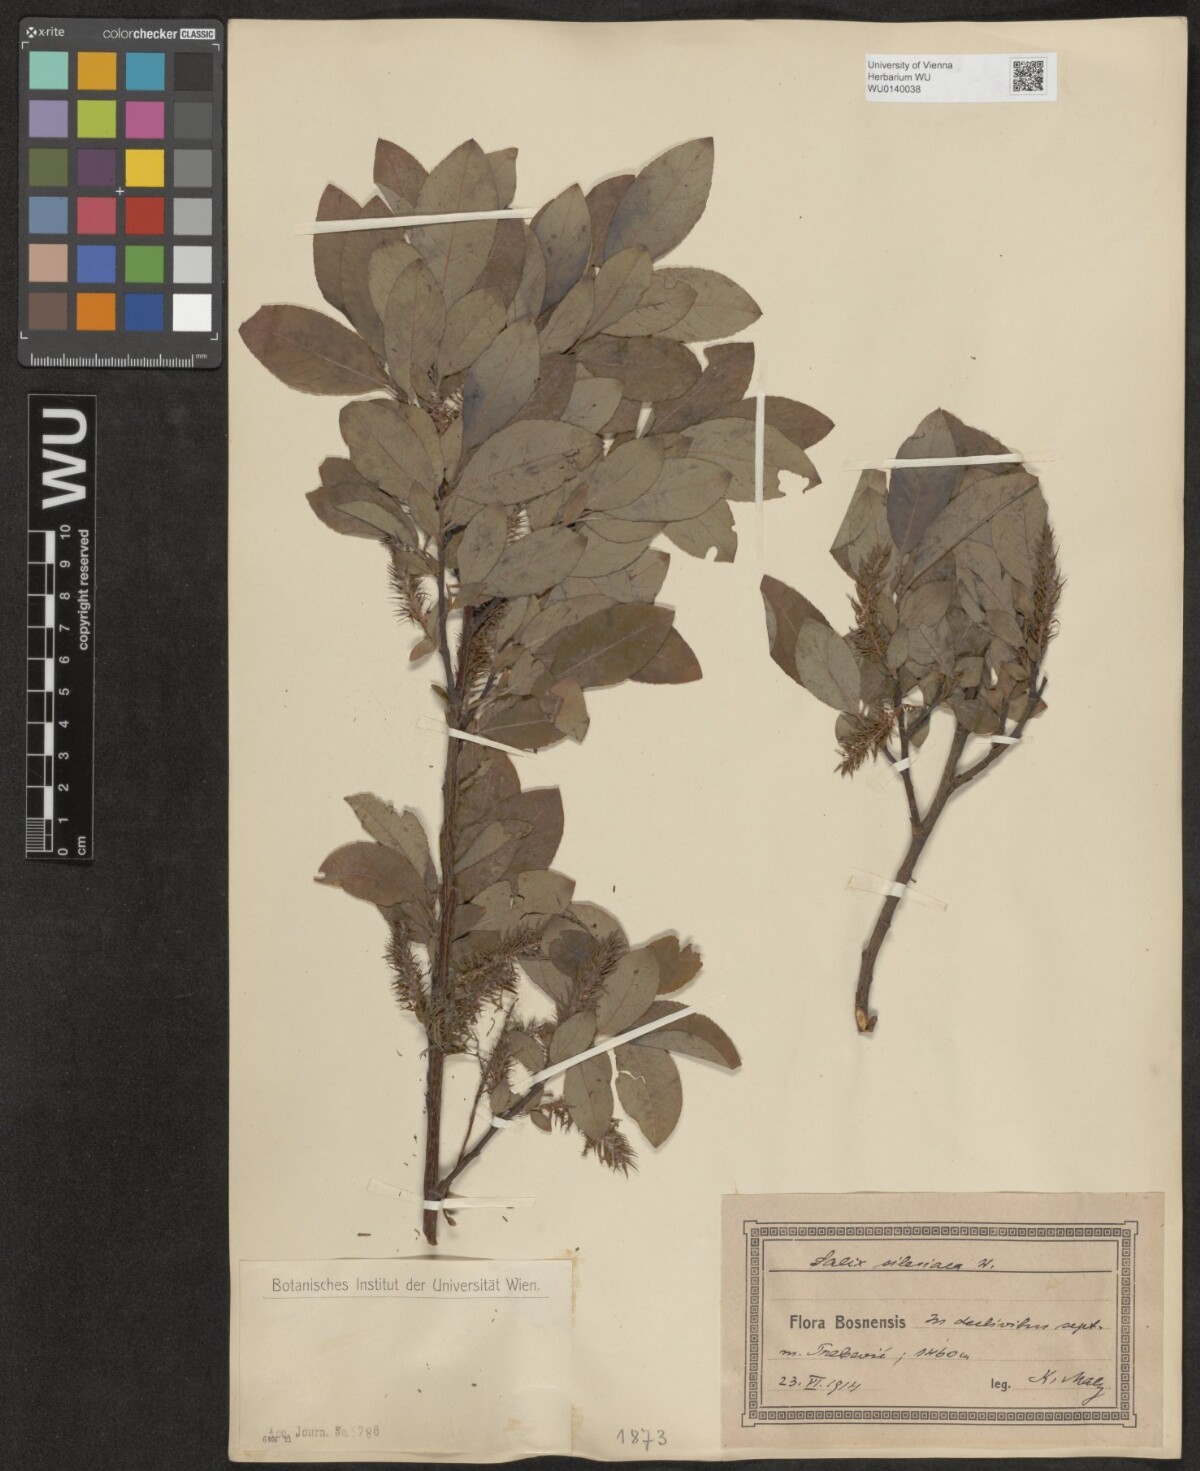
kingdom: Plantae
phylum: Tracheophyta
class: Magnoliopsida
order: Malpighiales
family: Salicaceae
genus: Salix
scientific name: Salix silesiaca
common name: Silesian willow
